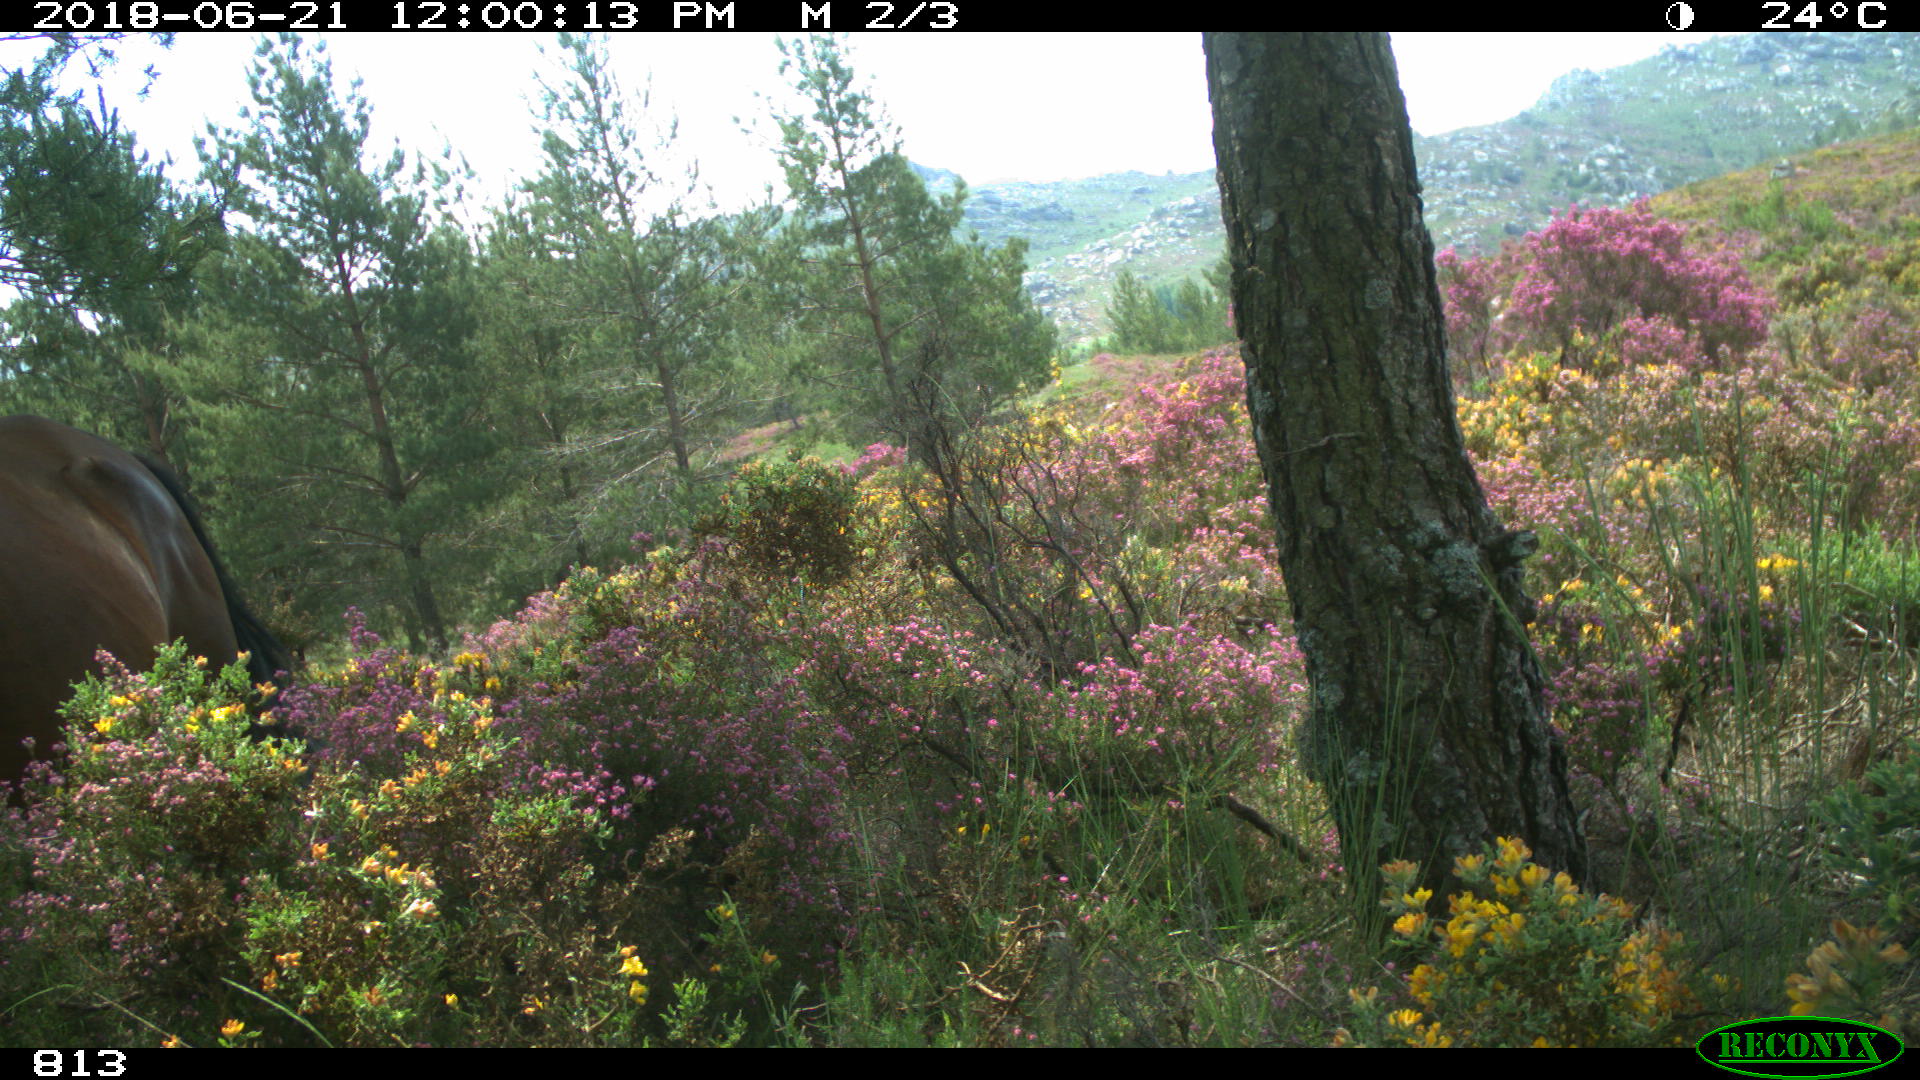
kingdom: Animalia
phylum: Chordata
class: Mammalia
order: Perissodactyla
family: Equidae
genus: Equus
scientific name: Equus caballus
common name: Horse
